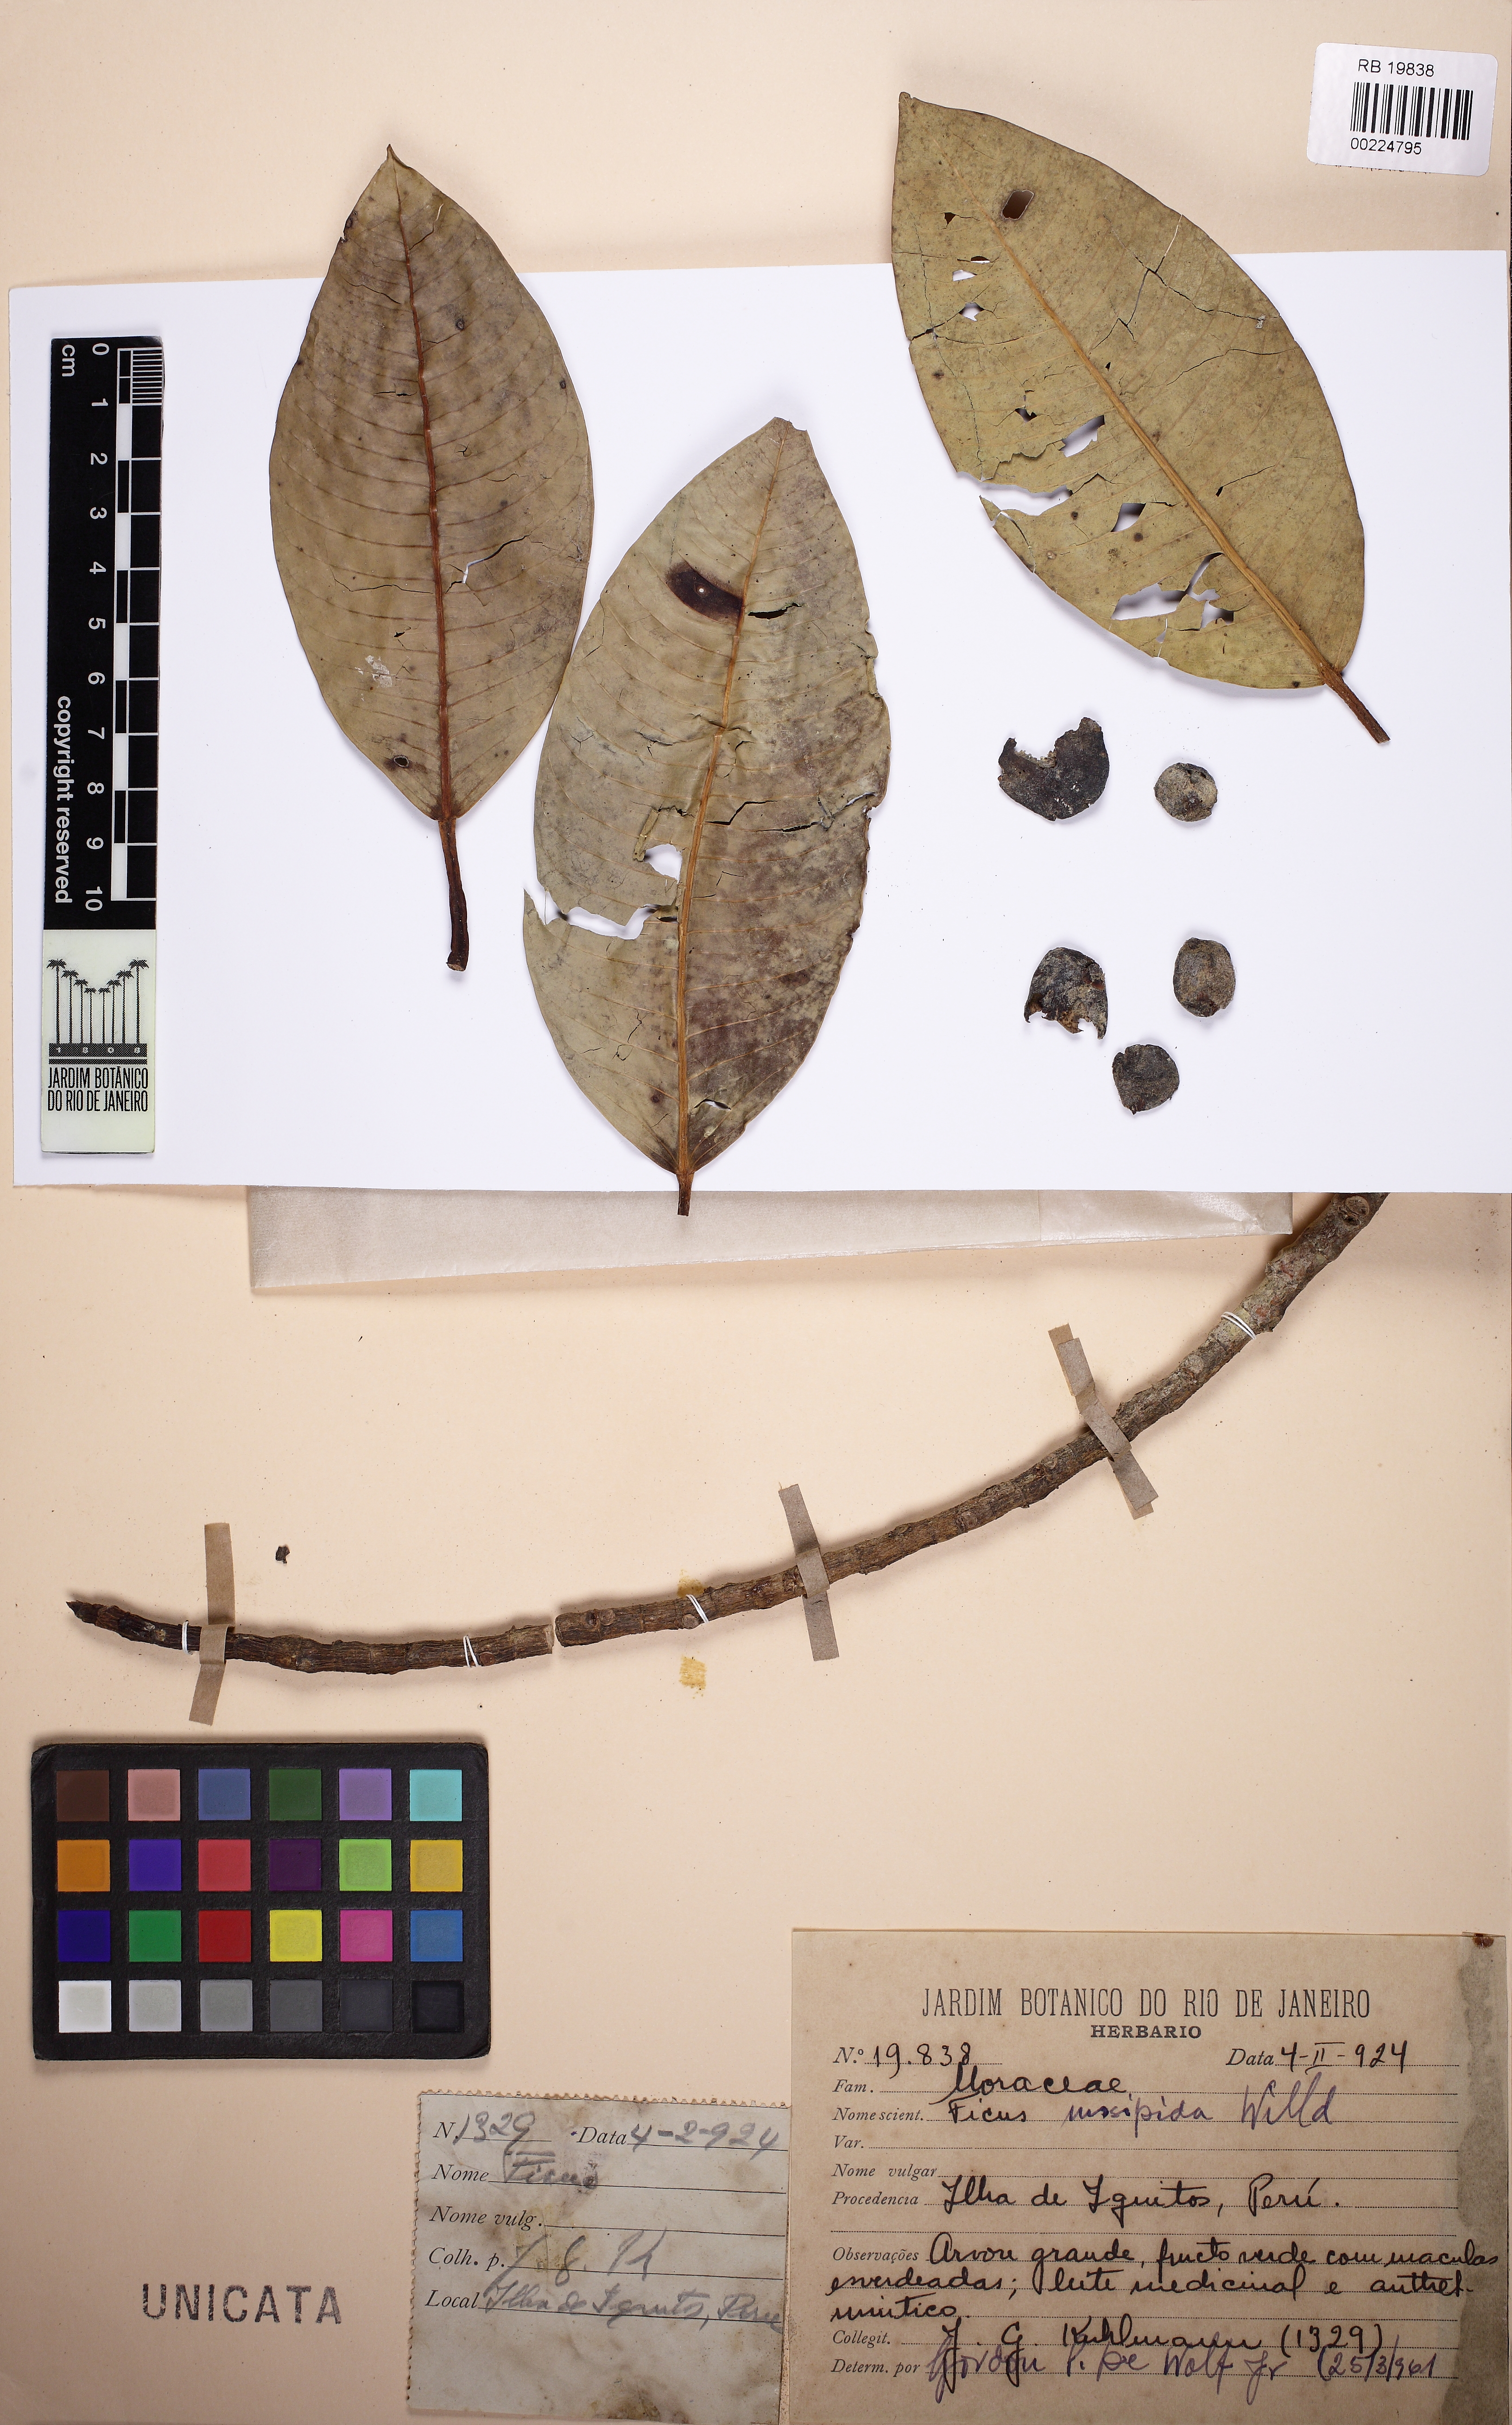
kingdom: Plantae
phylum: Tracheophyta
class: Magnoliopsida
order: Rosales
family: Moraceae
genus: Ficus
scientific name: Ficus insipida
